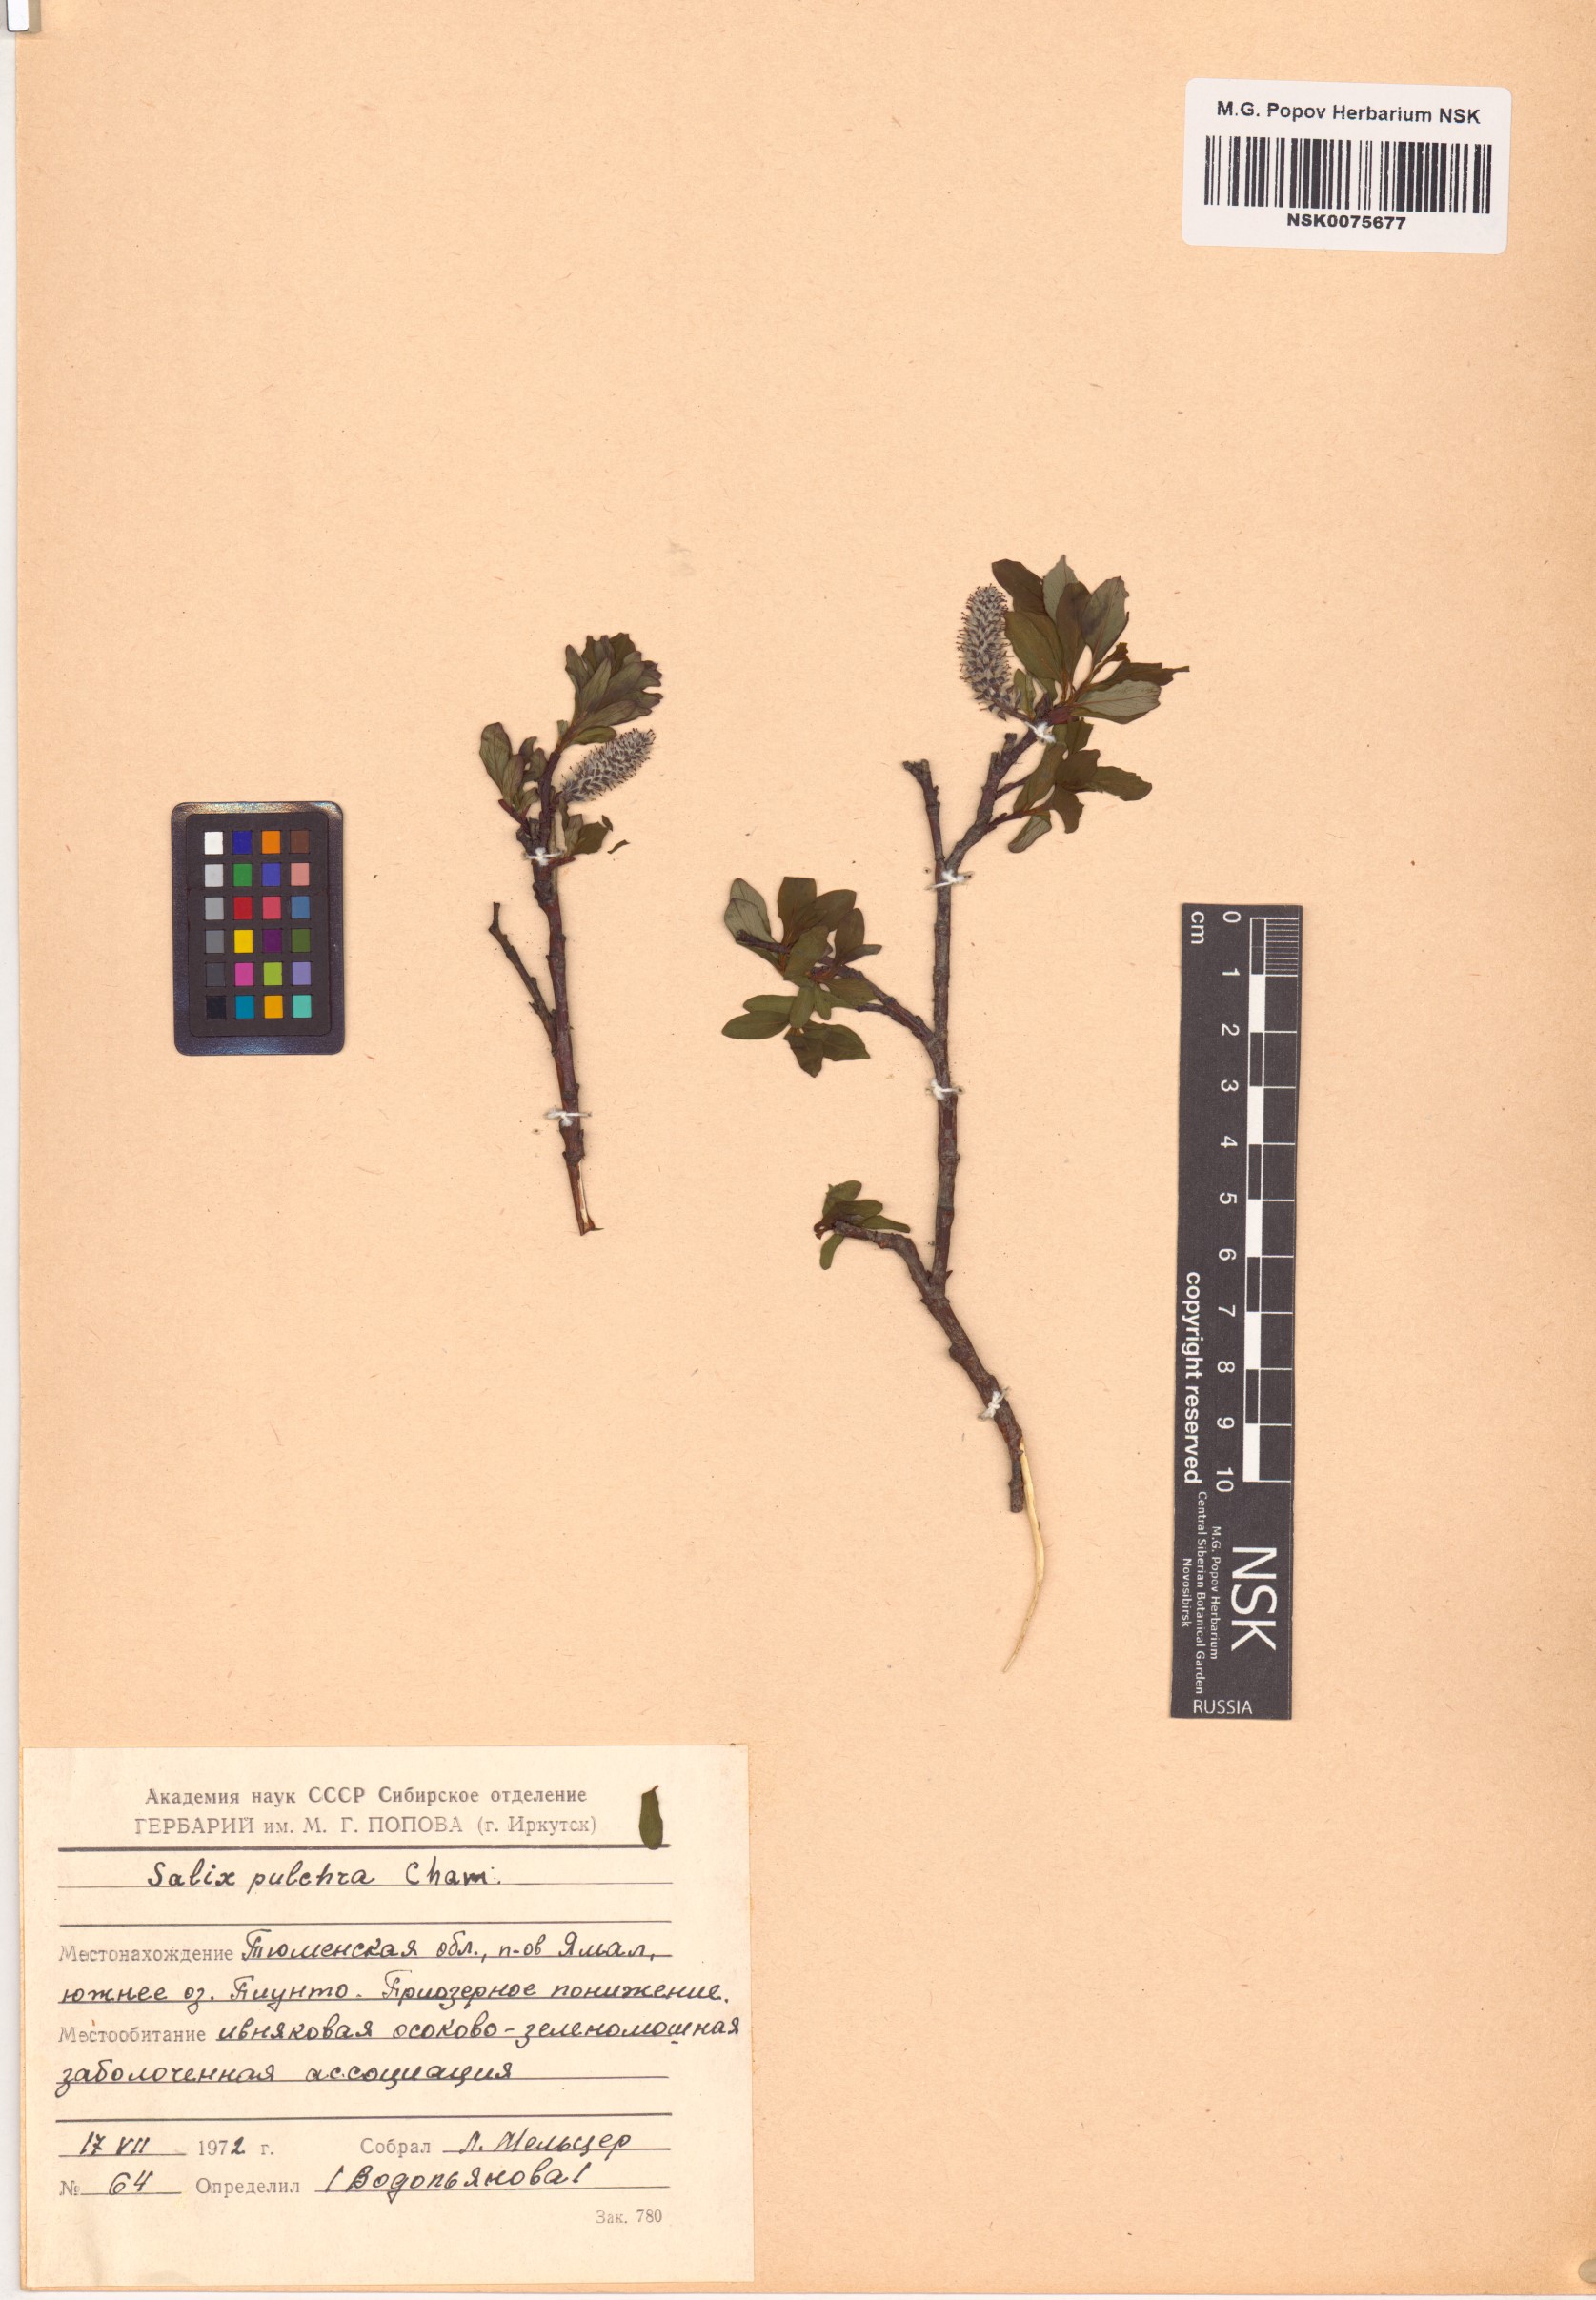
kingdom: Plantae
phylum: Tracheophyta
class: Magnoliopsida
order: Malpighiales
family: Salicaceae
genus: Salix
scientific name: Salix pulchra
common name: Diamond-leaved willow
